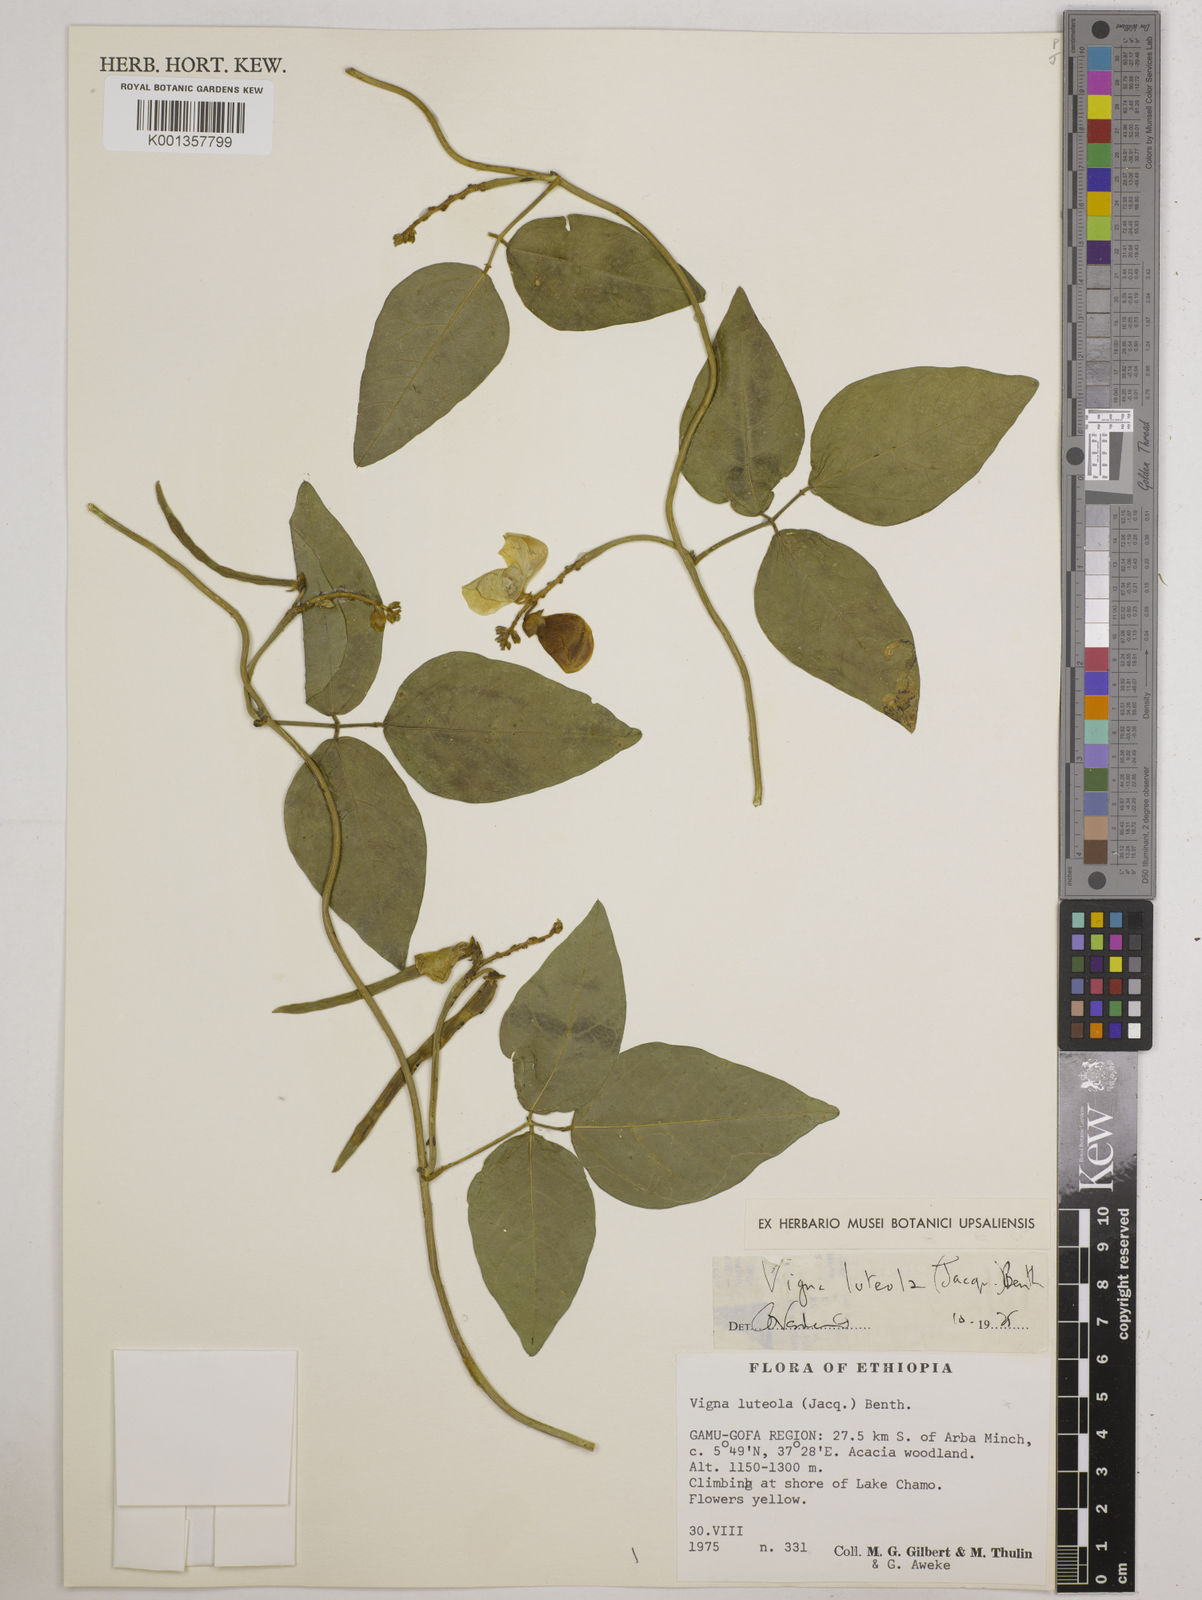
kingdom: Plantae
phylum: Tracheophyta
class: Magnoliopsida
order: Fabales
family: Fabaceae
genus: Vigna
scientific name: Vigna luteola
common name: Hairypod cowpea
